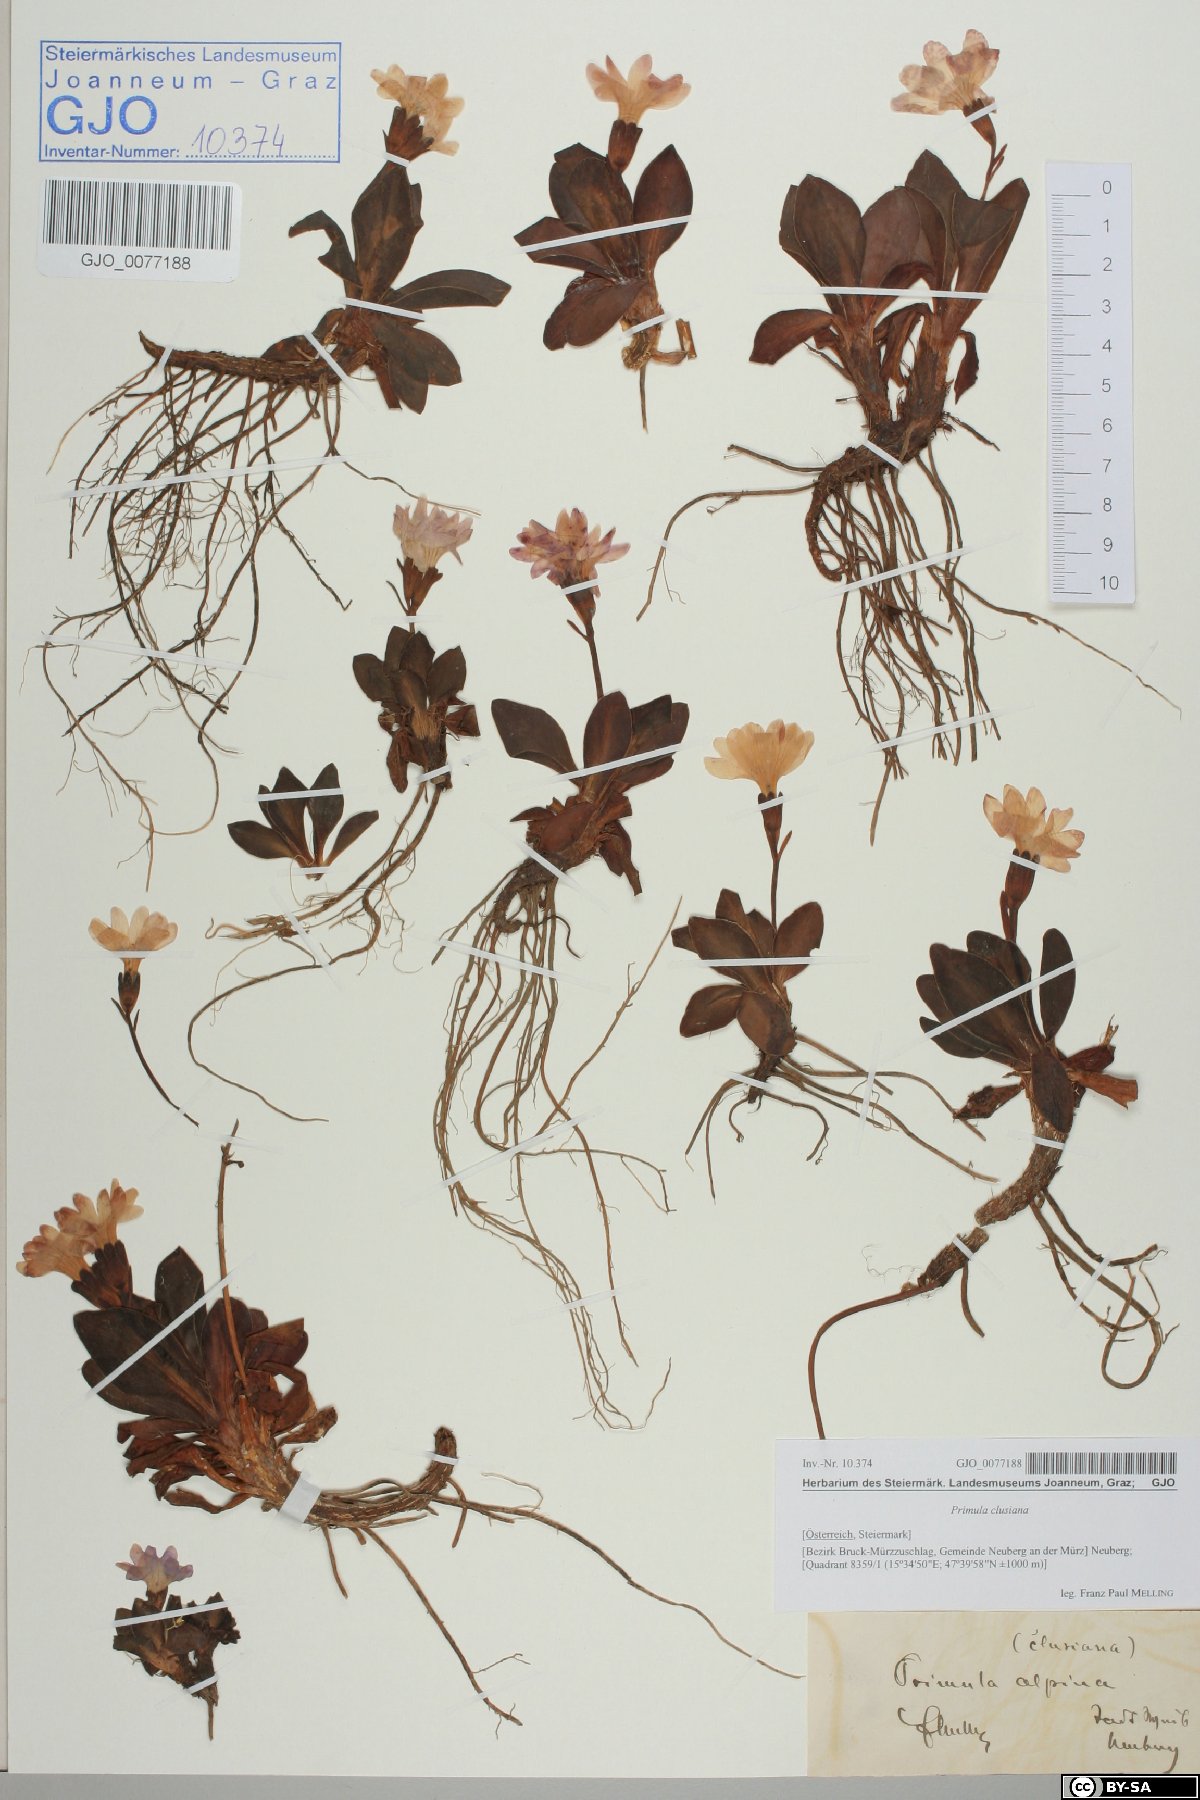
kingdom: Plantae
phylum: Tracheophyta
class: Magnoliopsida
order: Ericales
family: Primulaceae
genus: Primula
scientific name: Primula clusiana
